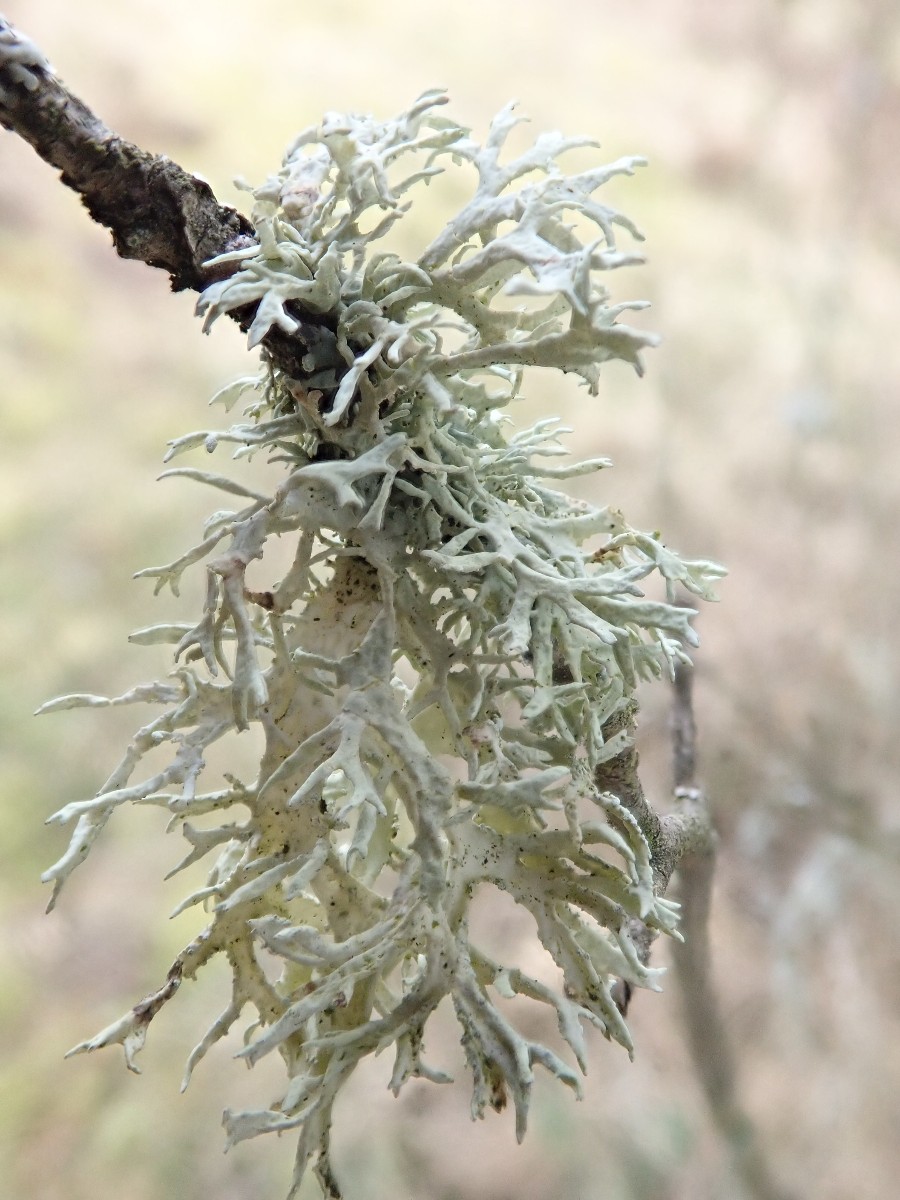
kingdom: Fungi
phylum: Ascomycota
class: Lecanoromycetes
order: Lecanorales
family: Parmeliaceae
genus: Evernia
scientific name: Evernia prunastri
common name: almindelig slåenlav
